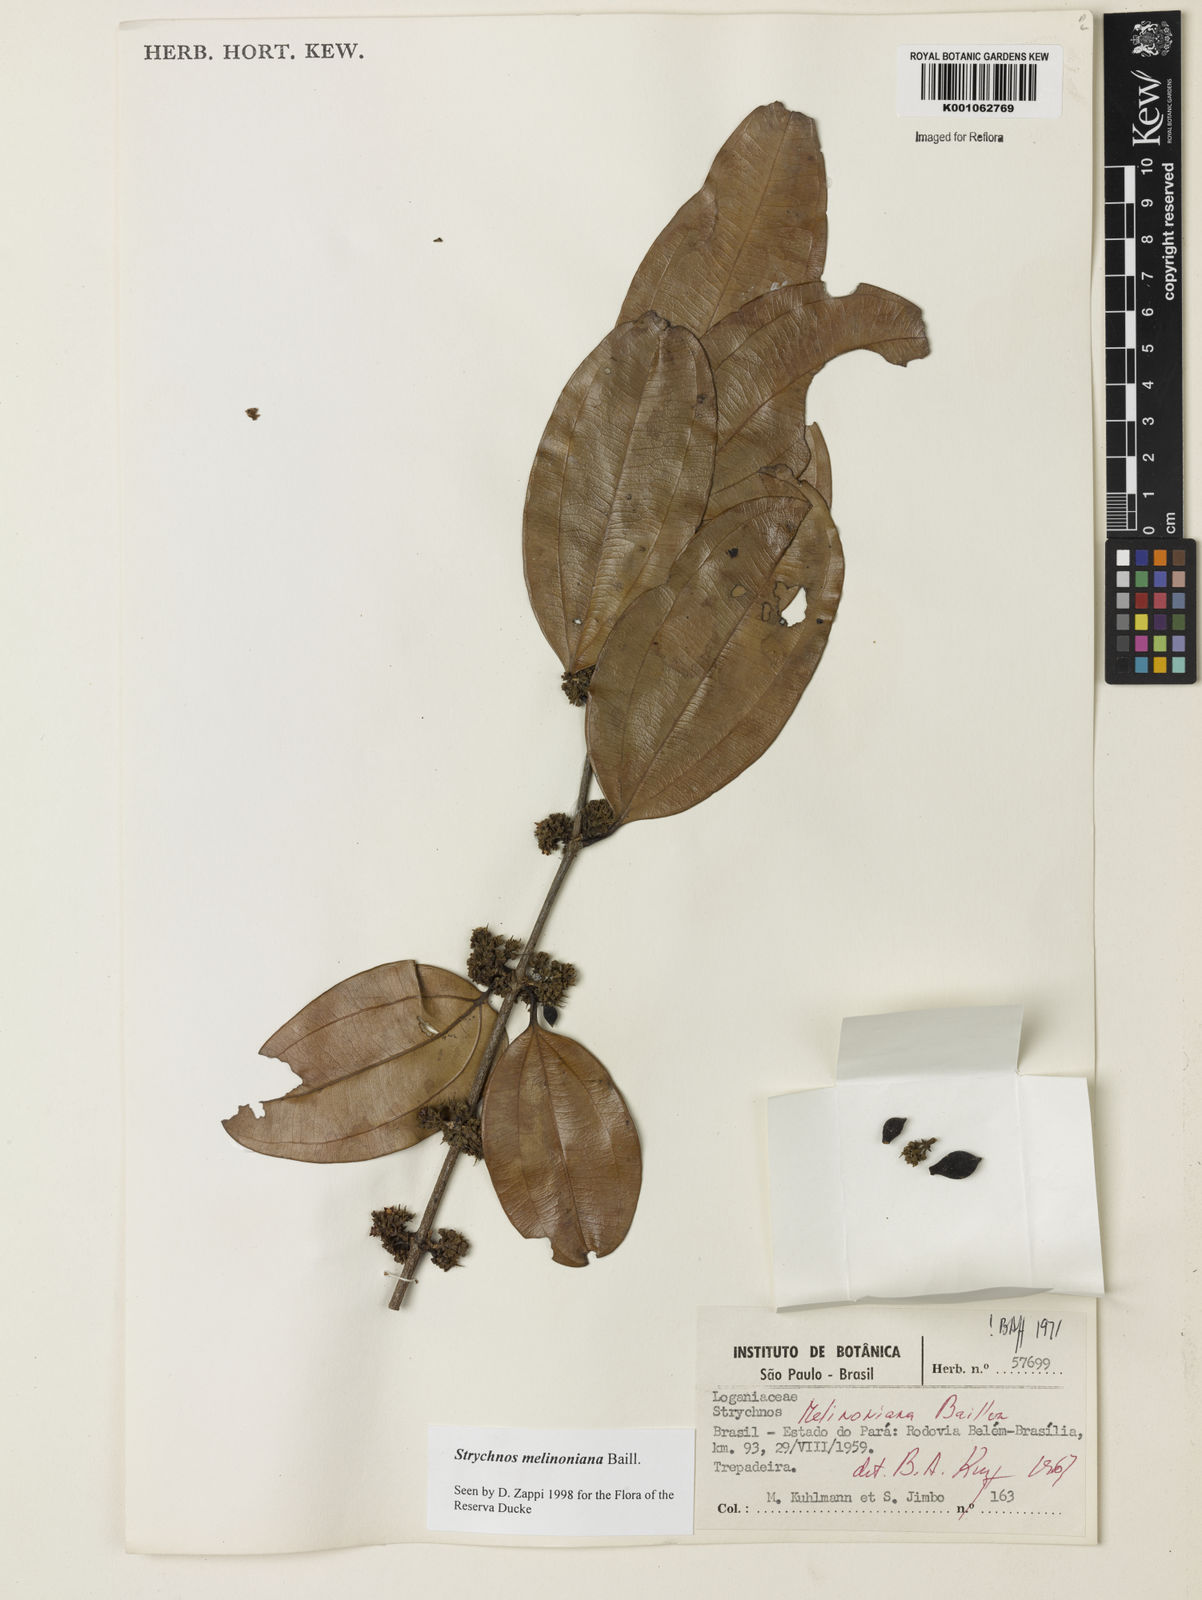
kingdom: Plantae
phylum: Tracheophyta
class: Magnoliopsida
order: Gentianales
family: Loganiaceae
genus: Strychnos
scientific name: Strychnos melinoniana
